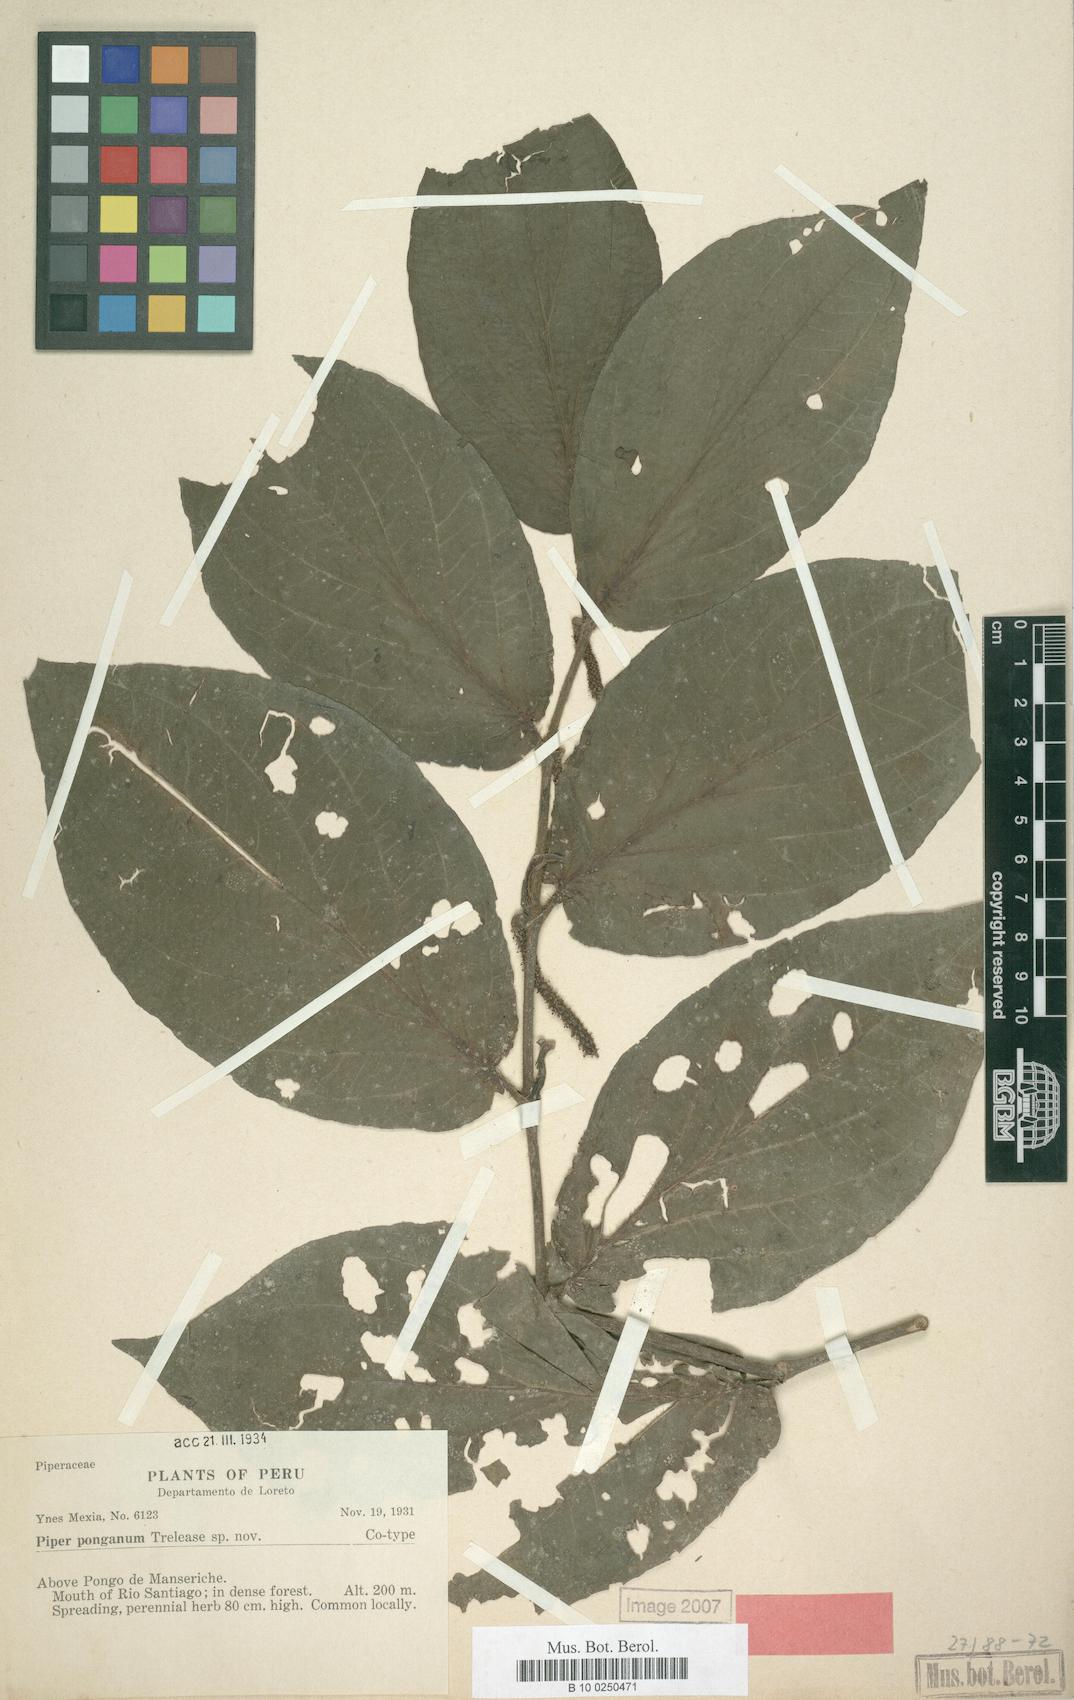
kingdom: Plantae
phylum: Tracheophyta
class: Magnoliopsida
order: Piperales
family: Piperaceae
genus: Piper
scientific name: Piper ponganum
